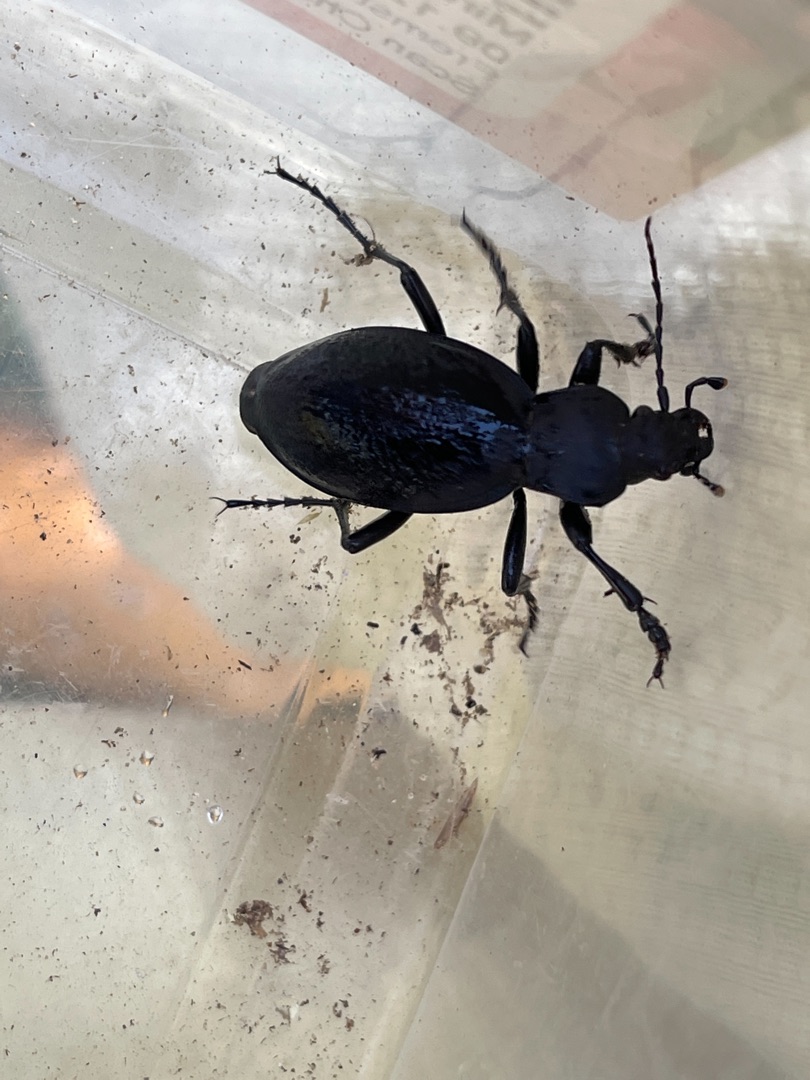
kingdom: Animalia
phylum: Arthropoda
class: Insecta
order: Coleoptera
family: Carabidae
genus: Carabus
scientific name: Carabus coriaceus
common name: Læderløber
